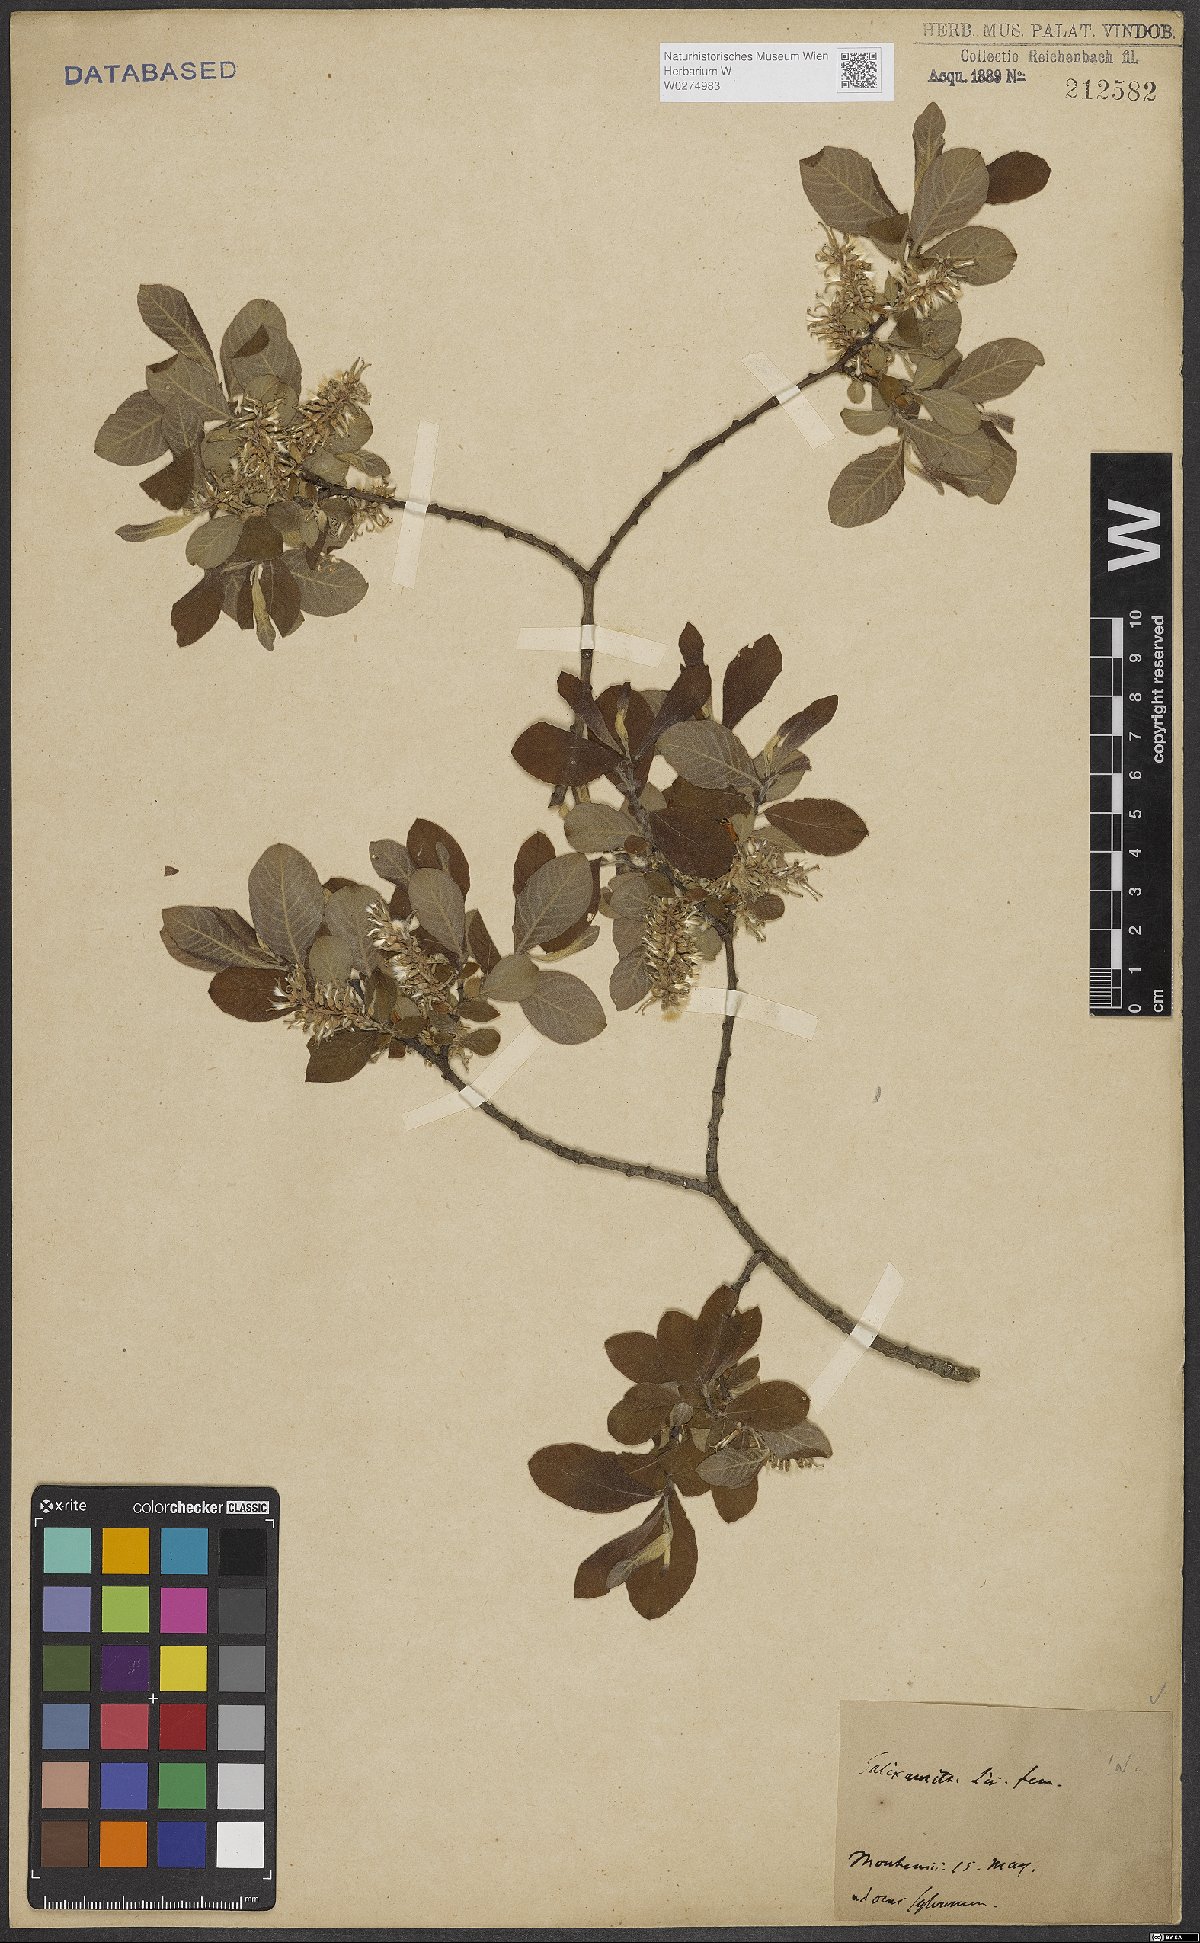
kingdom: Plantae
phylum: Tracheophyta
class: Magnoliopsida
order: Malpighiales
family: Salicaceae
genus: Salix
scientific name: Salix aurita
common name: Eared willow
